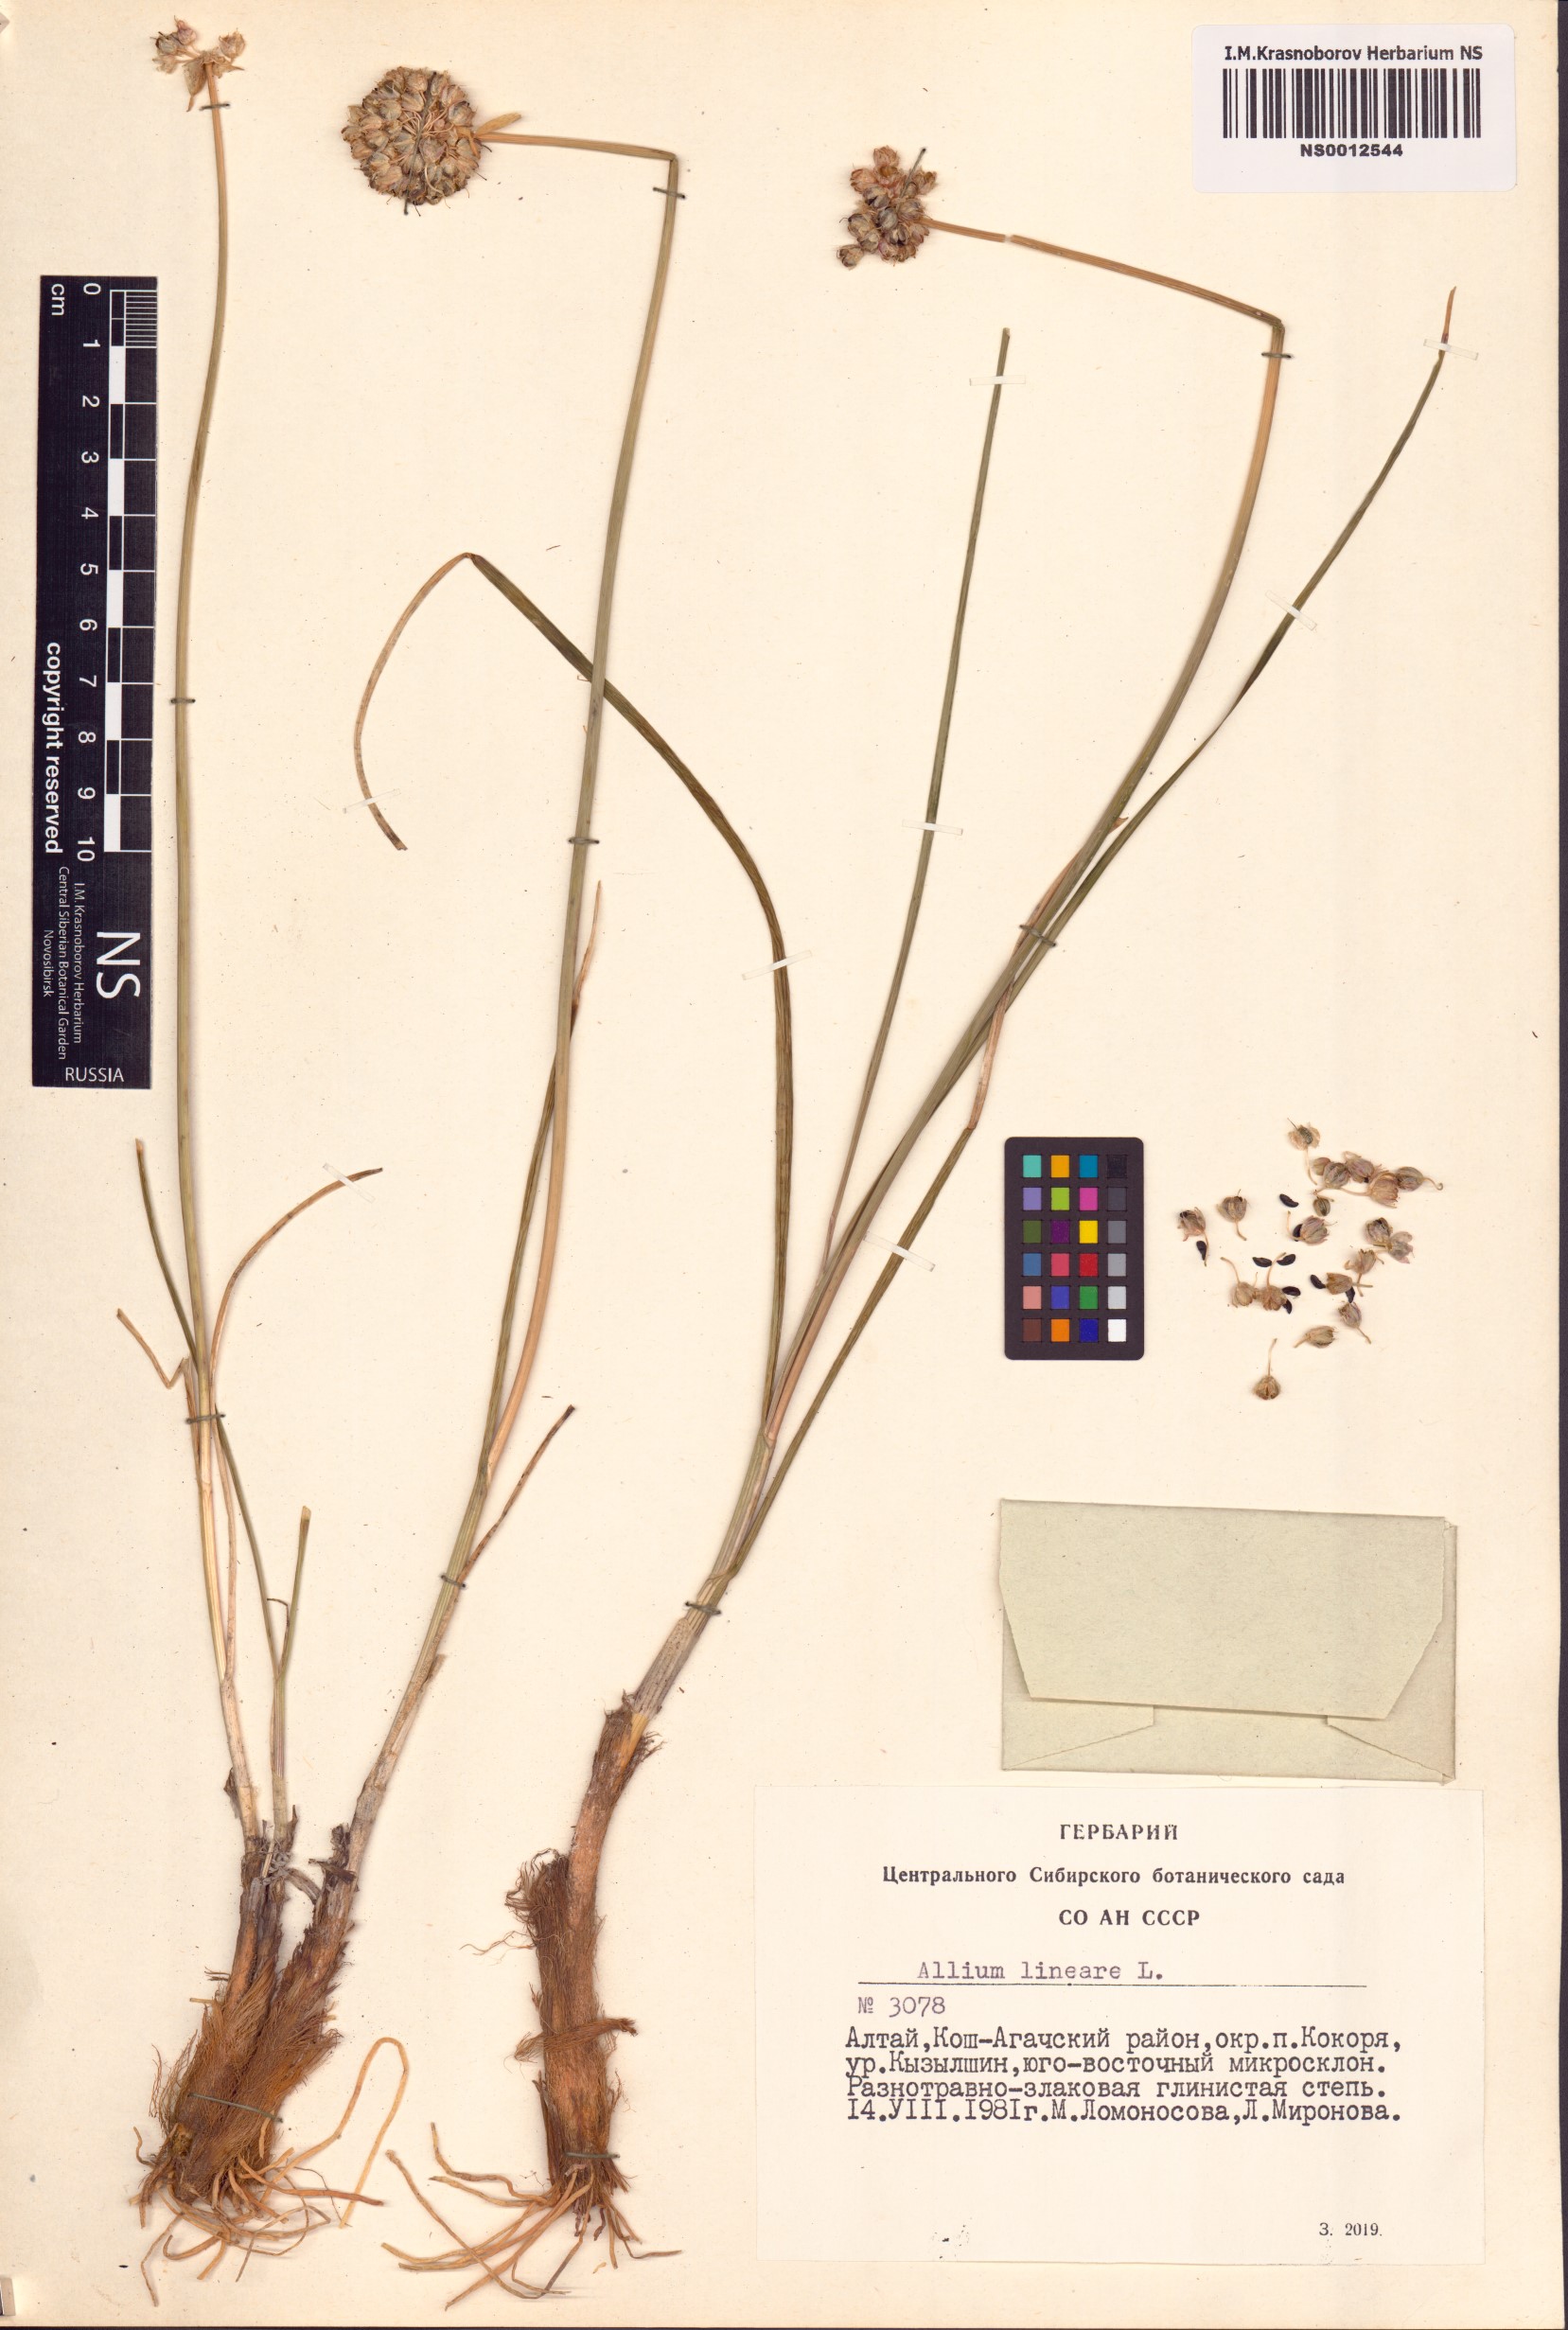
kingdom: Plantae
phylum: Tracheophyta
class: Liliopsida
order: Asparagales
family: Amaryllidaceae
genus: Allium
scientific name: Allium lineare
